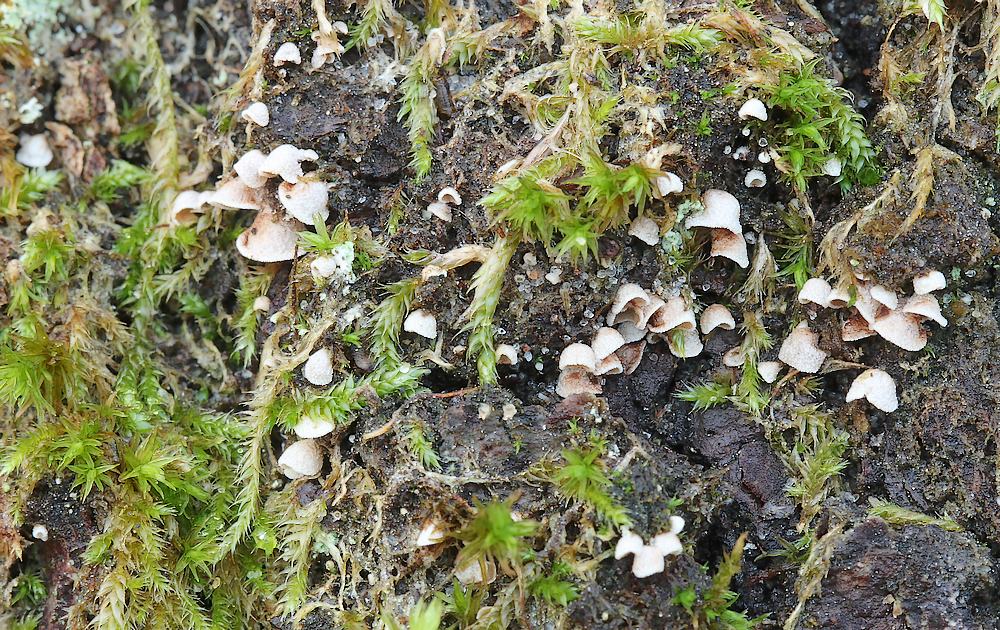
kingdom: Fungi
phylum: Basidiomycota
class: Agaricomycetes
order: Agaricales
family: Chromocyphellaceae
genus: Chromocyphella
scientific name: Chromocyphella muscicola
